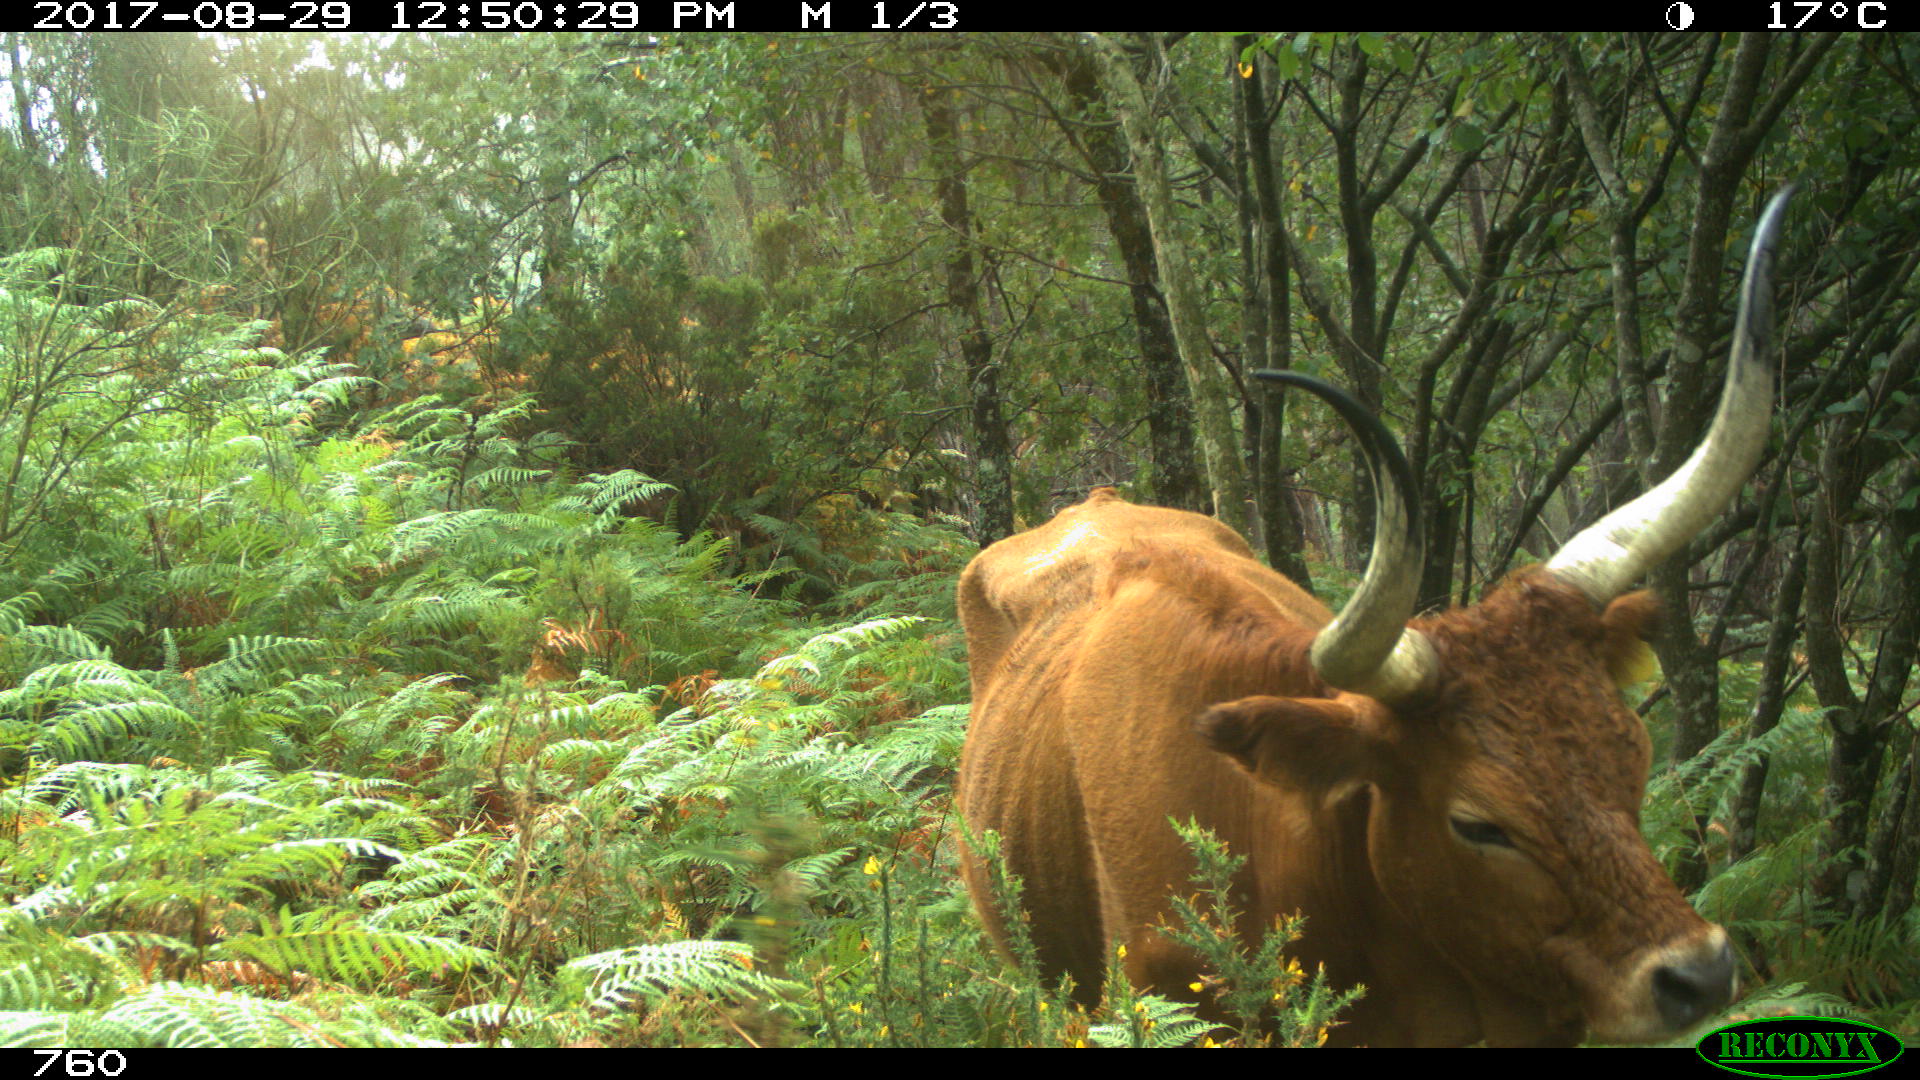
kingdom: Animalia
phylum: Chordata
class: Mammalia
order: Artiodactyla
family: Bovidae
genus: Bos
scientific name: Bos taurus
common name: Domesticated cattle
